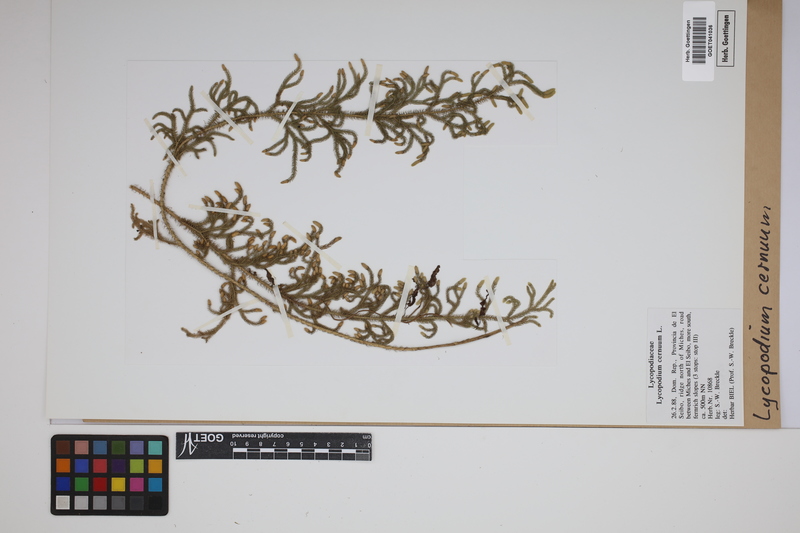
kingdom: Plantae
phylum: Tracheophyta
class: Lycopodiopsida
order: Lycopodiales
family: Lycopodiaceae
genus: Palhinhaea
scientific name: Palhinhaea cernua
